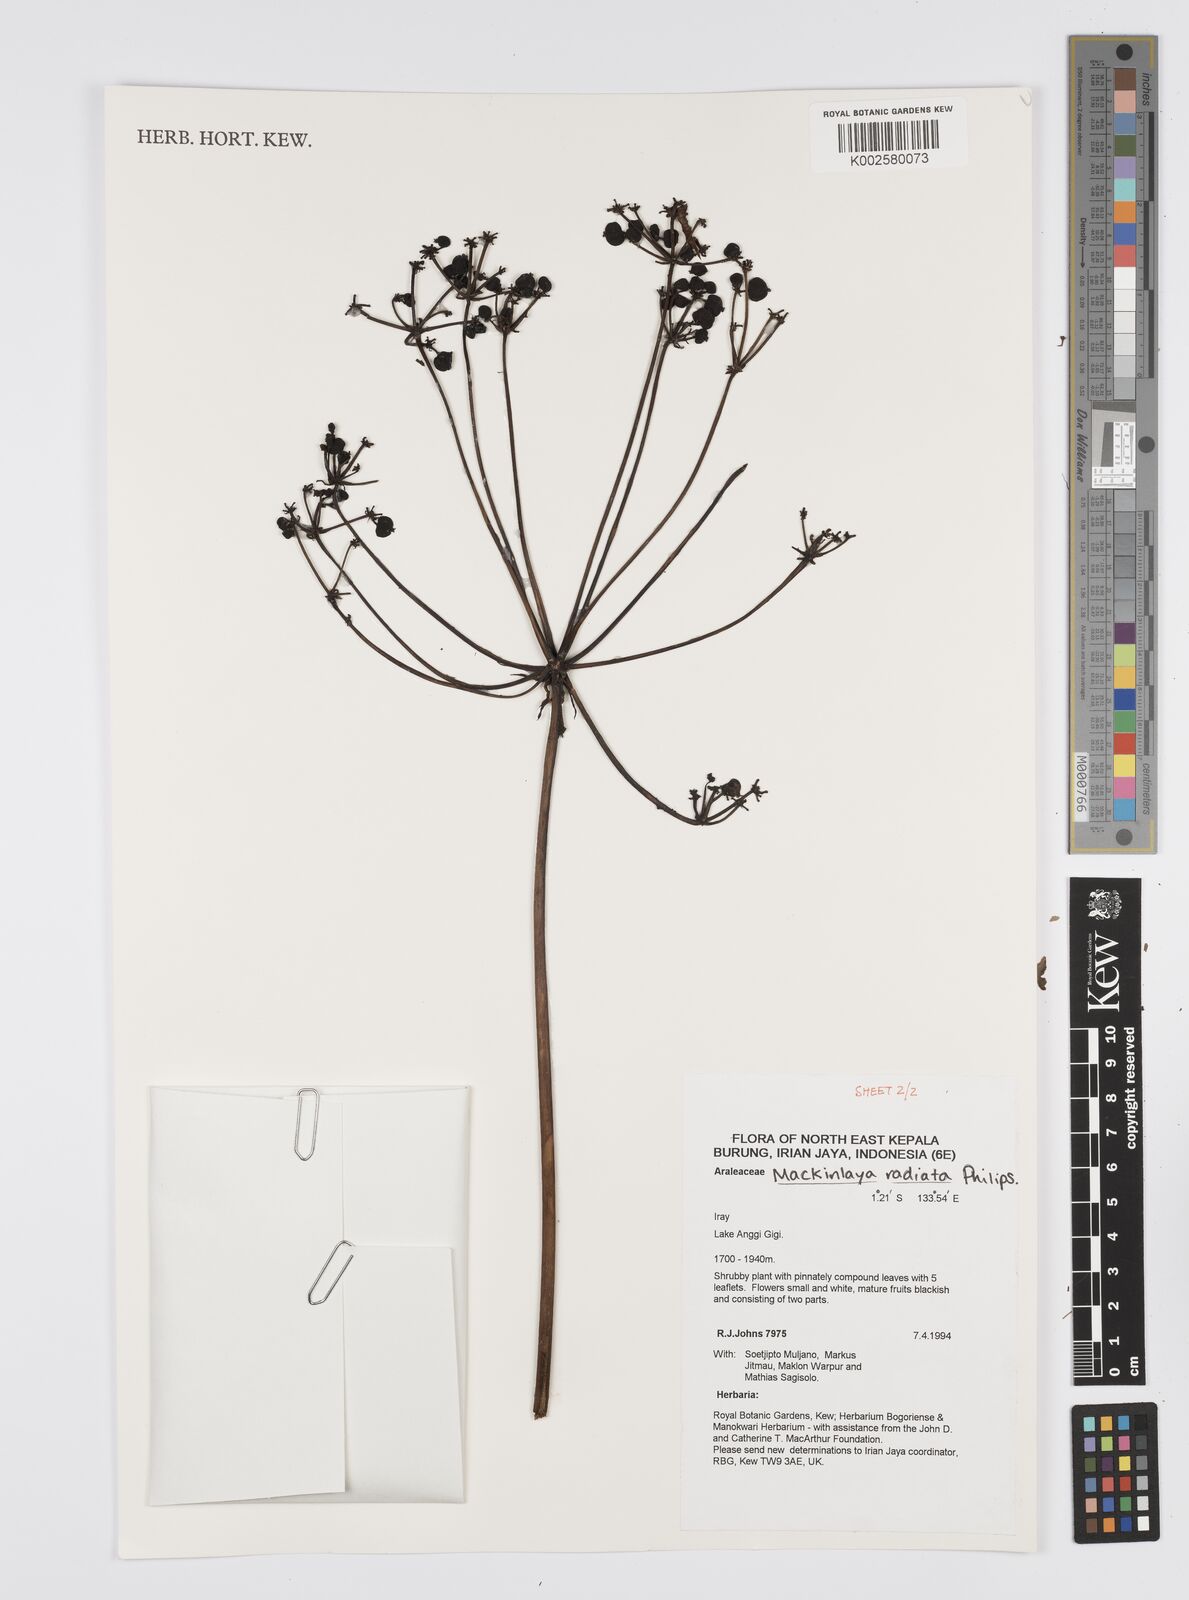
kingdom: Plantae
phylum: Tracheophyta
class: Magnoliopsida
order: Apiales
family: Apiaceae
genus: Mackinlaya
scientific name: Mackinlaya radiata
